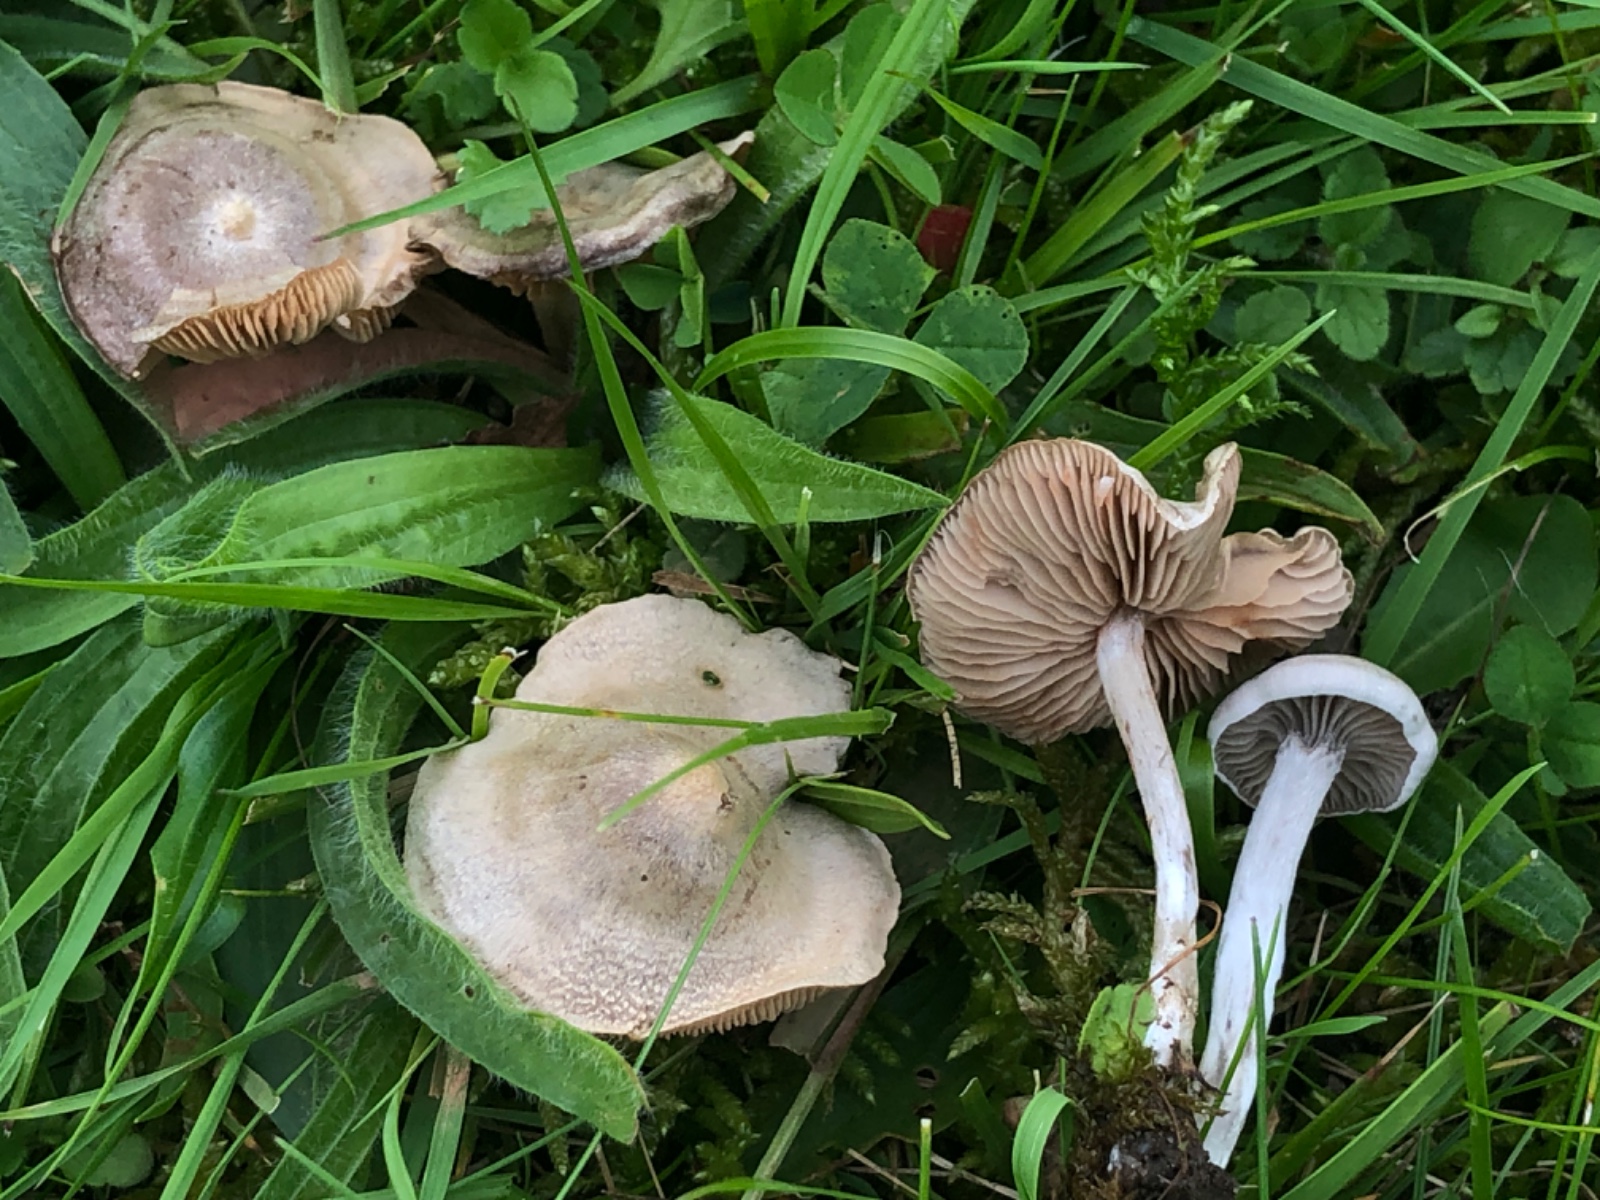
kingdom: Fungi
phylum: Basidiomycota
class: Agaricomycetes
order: Agaricales
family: Entolomataceae
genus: Entoloma
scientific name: Entoloma korhonenii
